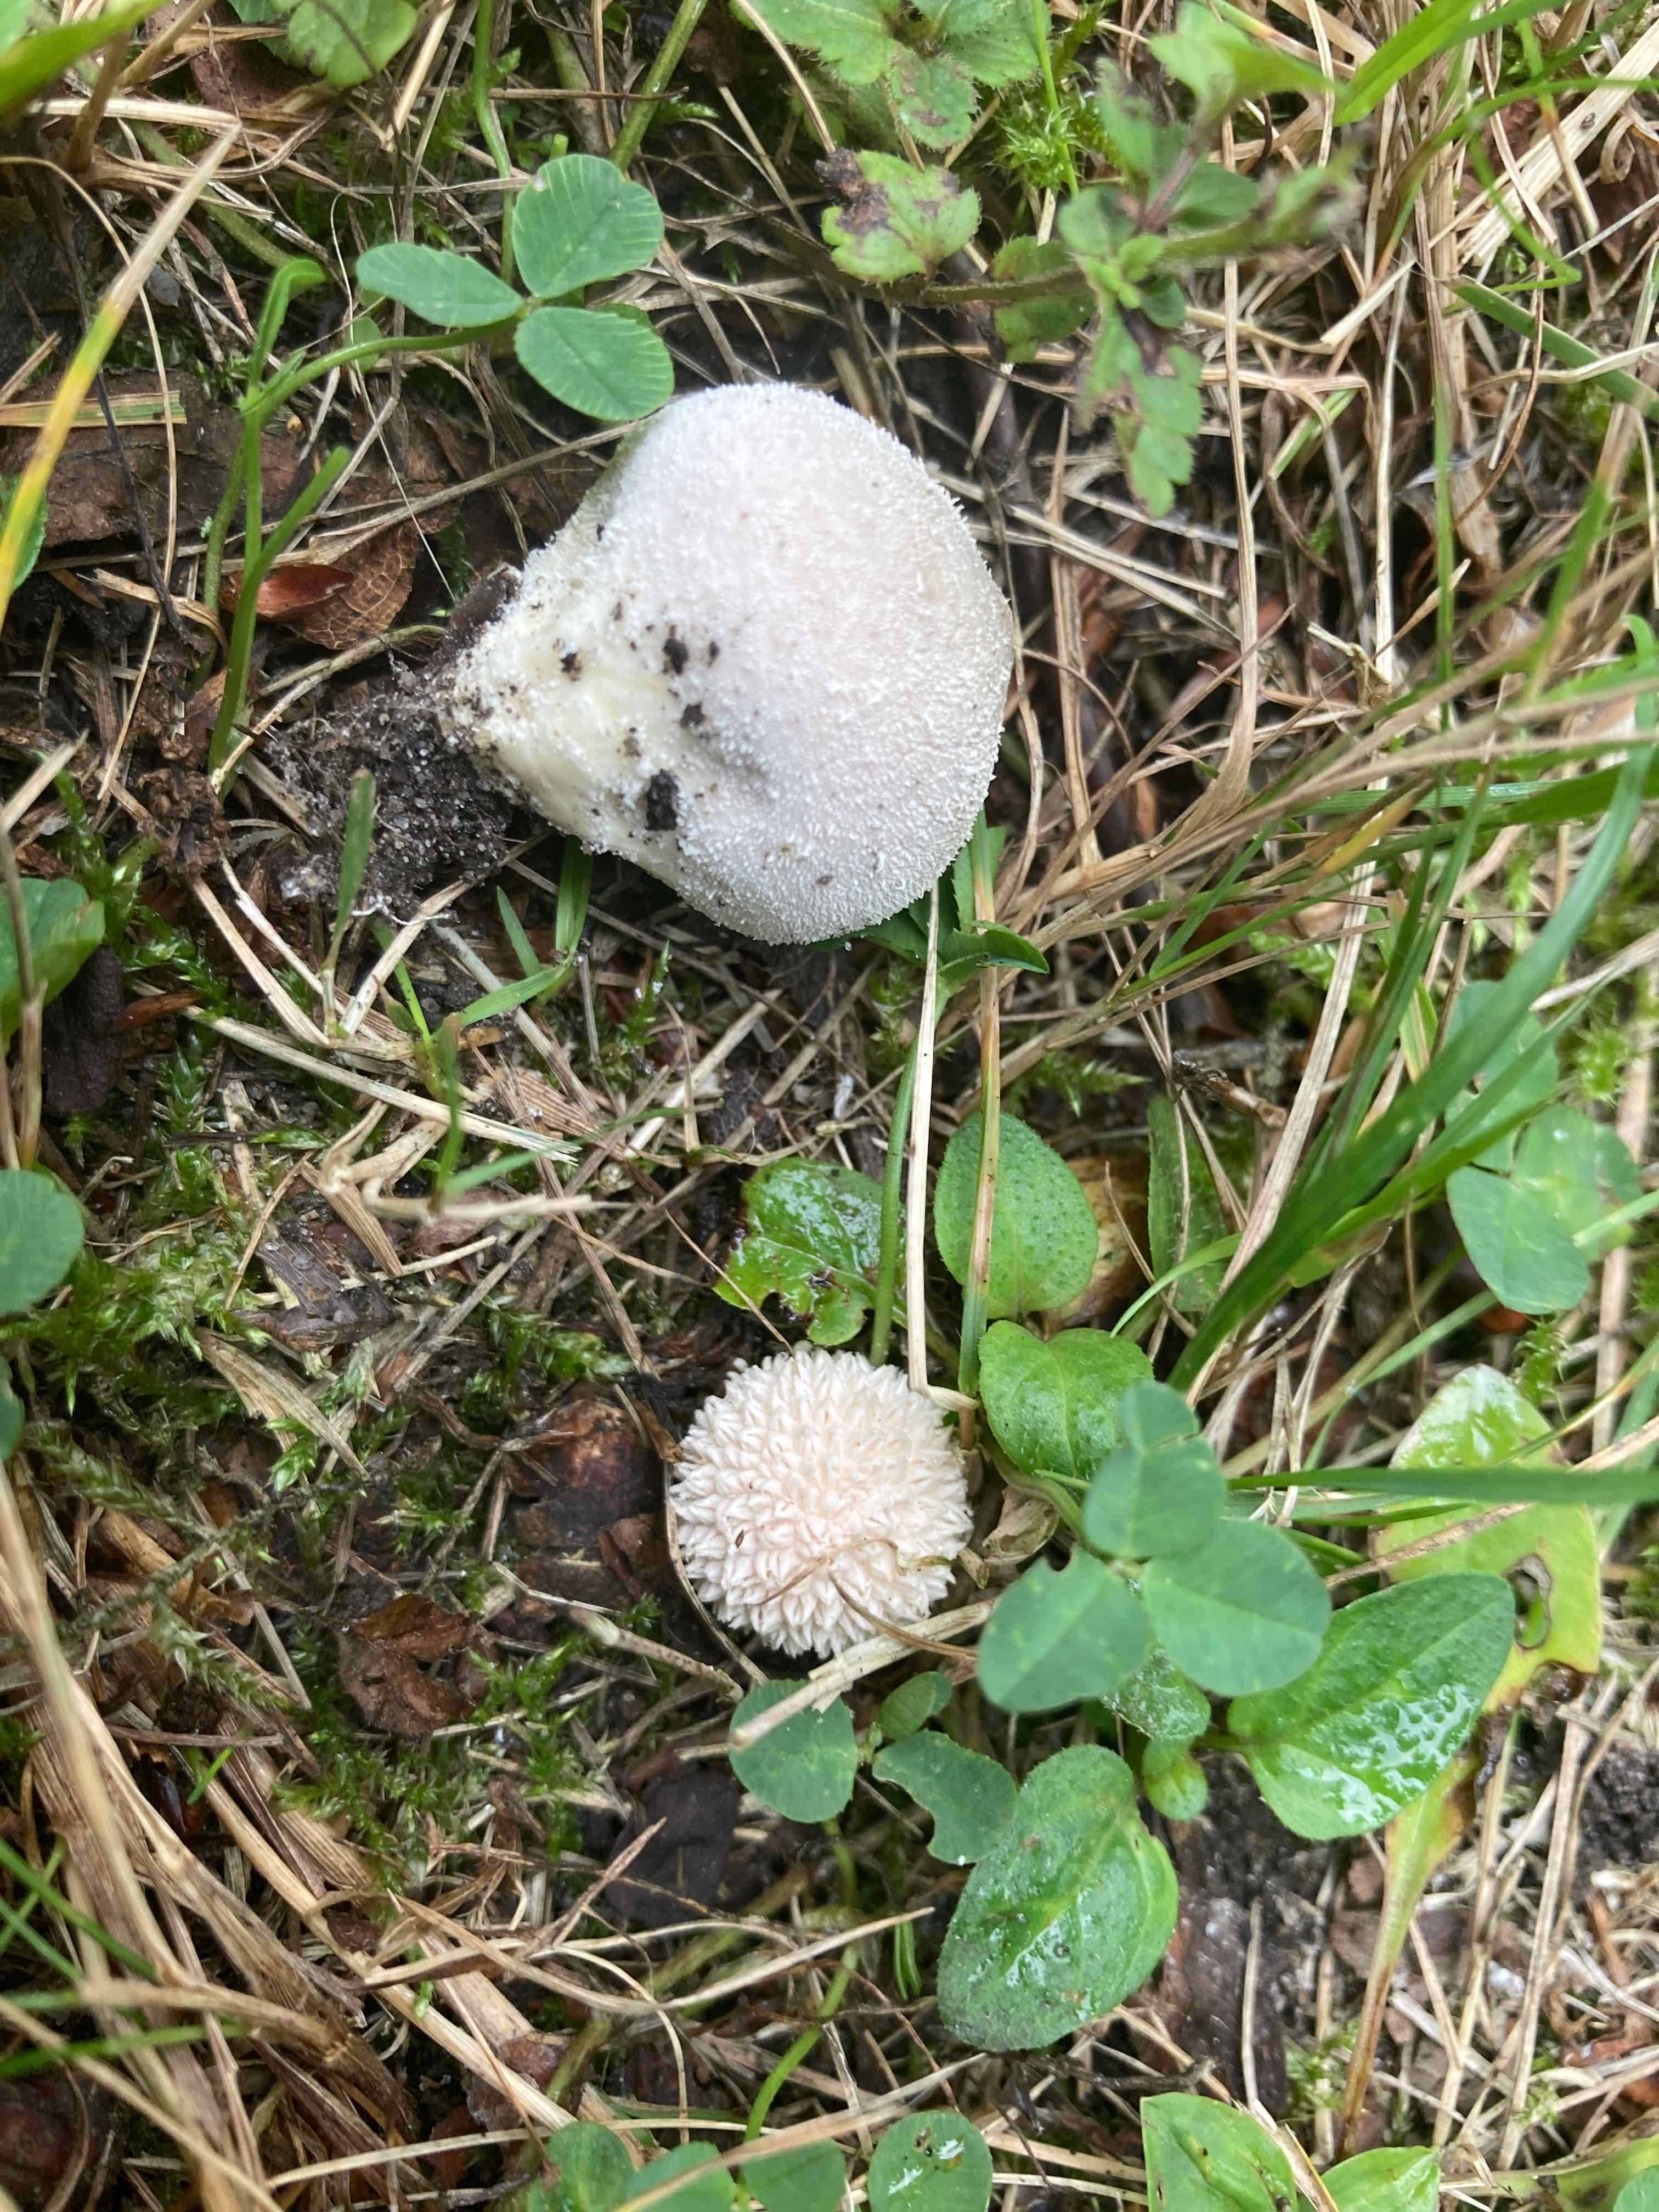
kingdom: Fungi
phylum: Basidiomycota
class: Agaricomycetes
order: Agaricales
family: Lycoperdaceae
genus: Lycoperdon
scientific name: Lycoperdon decipiens
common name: rod-støvbold
